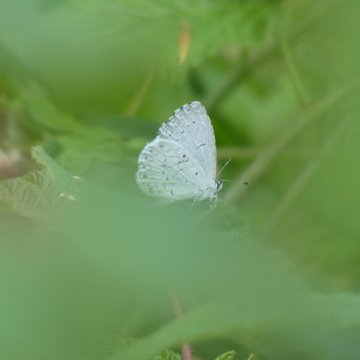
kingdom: Animalia
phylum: Arthropoda
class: Insecta
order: Lepidoptera
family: Lycaenidae
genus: Cyaniris
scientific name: Cyaniris neglecta
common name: Summer Azure
